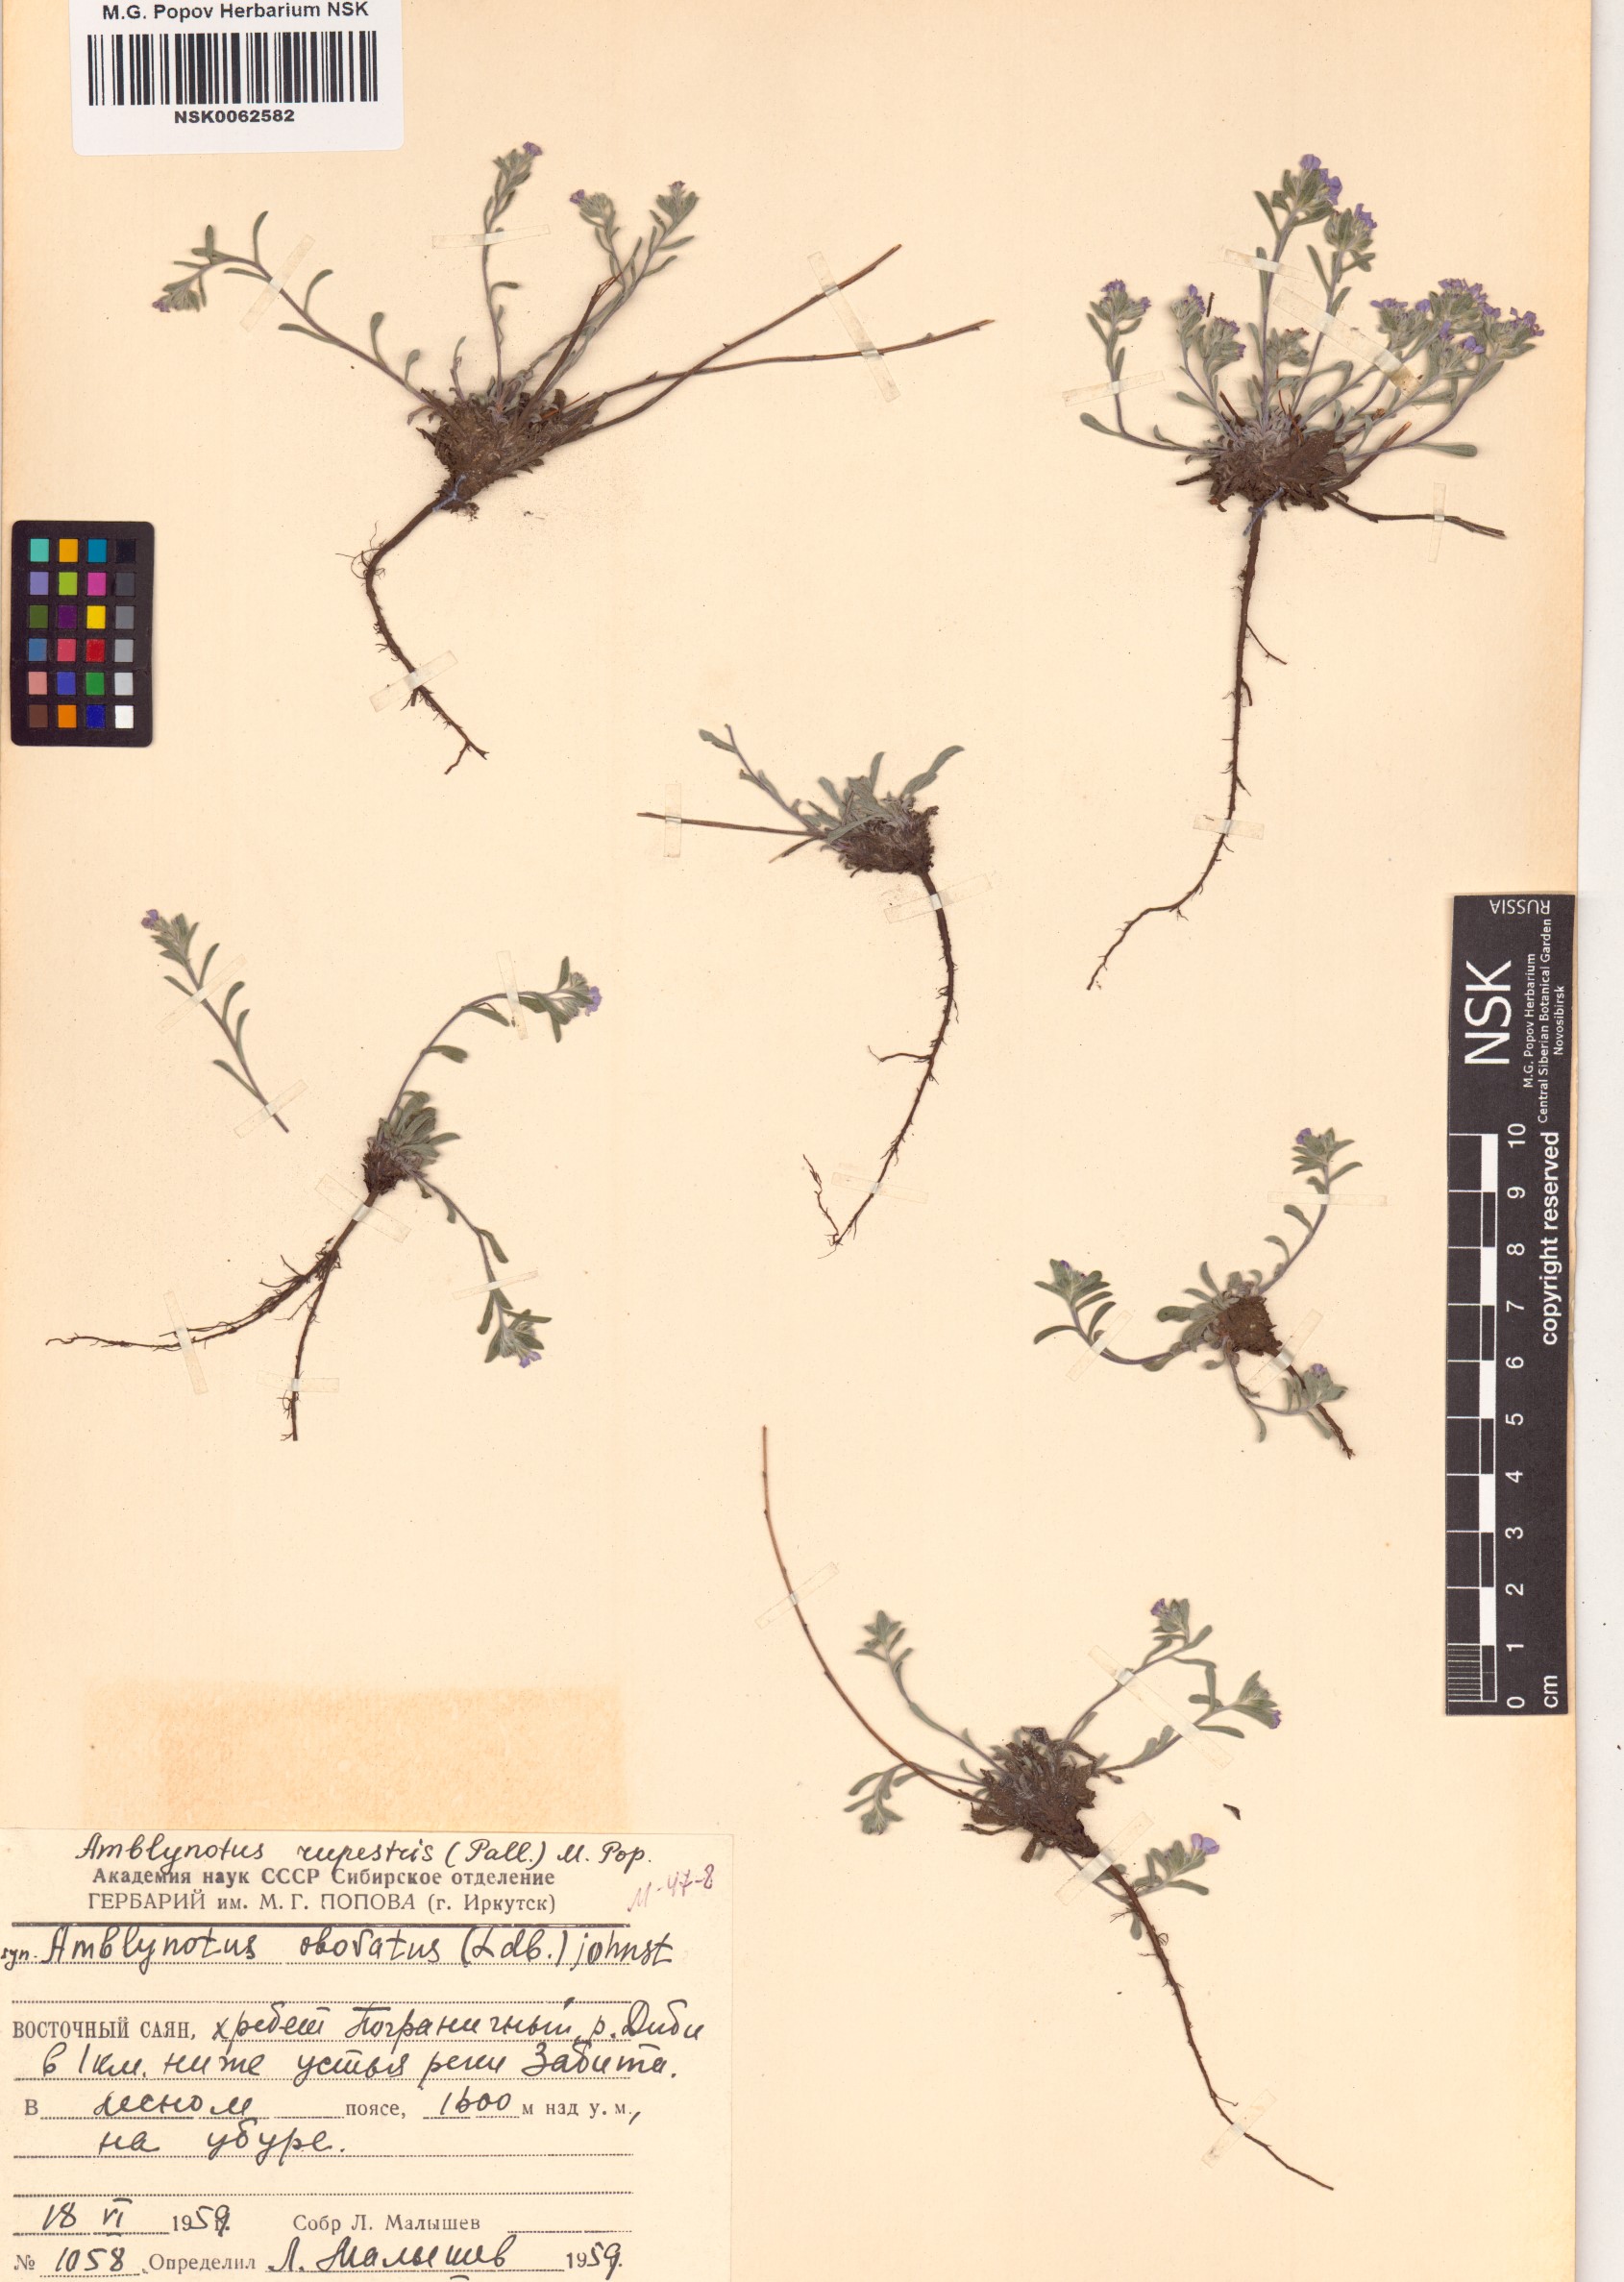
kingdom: Plantae
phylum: Tracheophyta
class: Magnoliopsida
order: Boraginales
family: Boraginaceae
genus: Eritrichium
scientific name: Eritrichium rupestre
